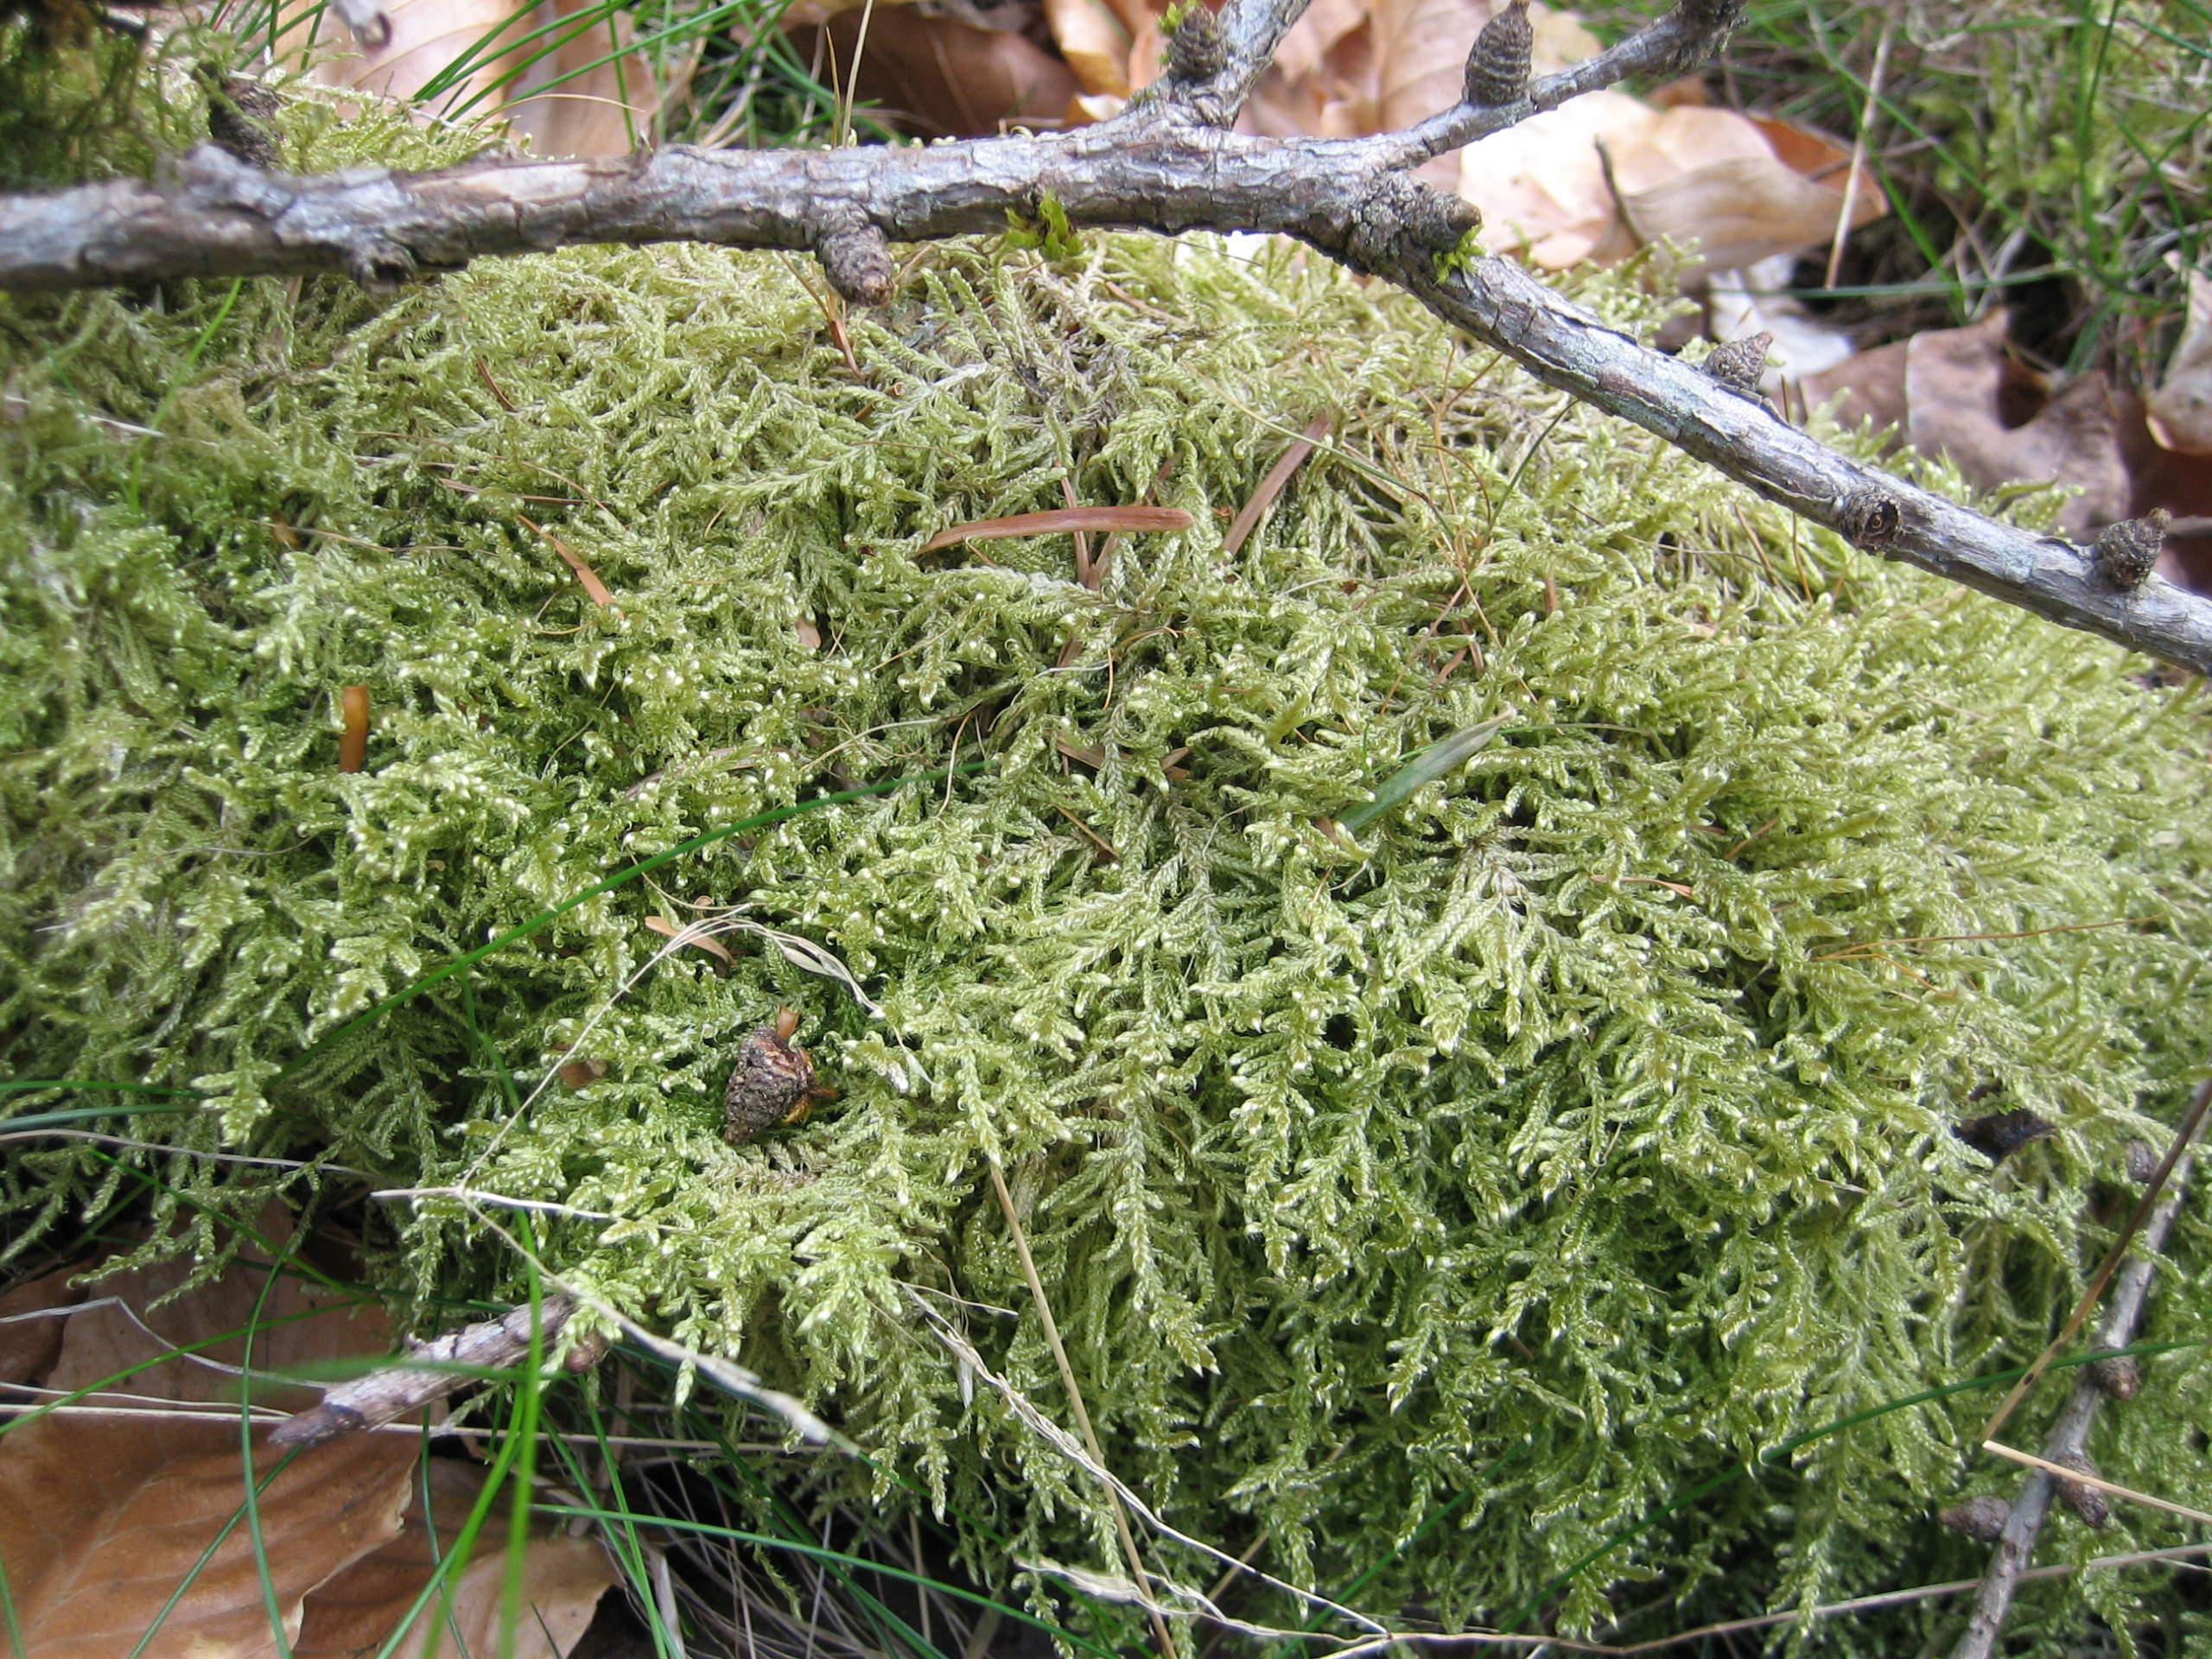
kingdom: Plantae
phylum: Bryophyta
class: Bryopsida
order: Hypnales
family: Hypnaceae
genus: Hypnum
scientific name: Hypnum jutlandicum
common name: Hede-cypresmos
